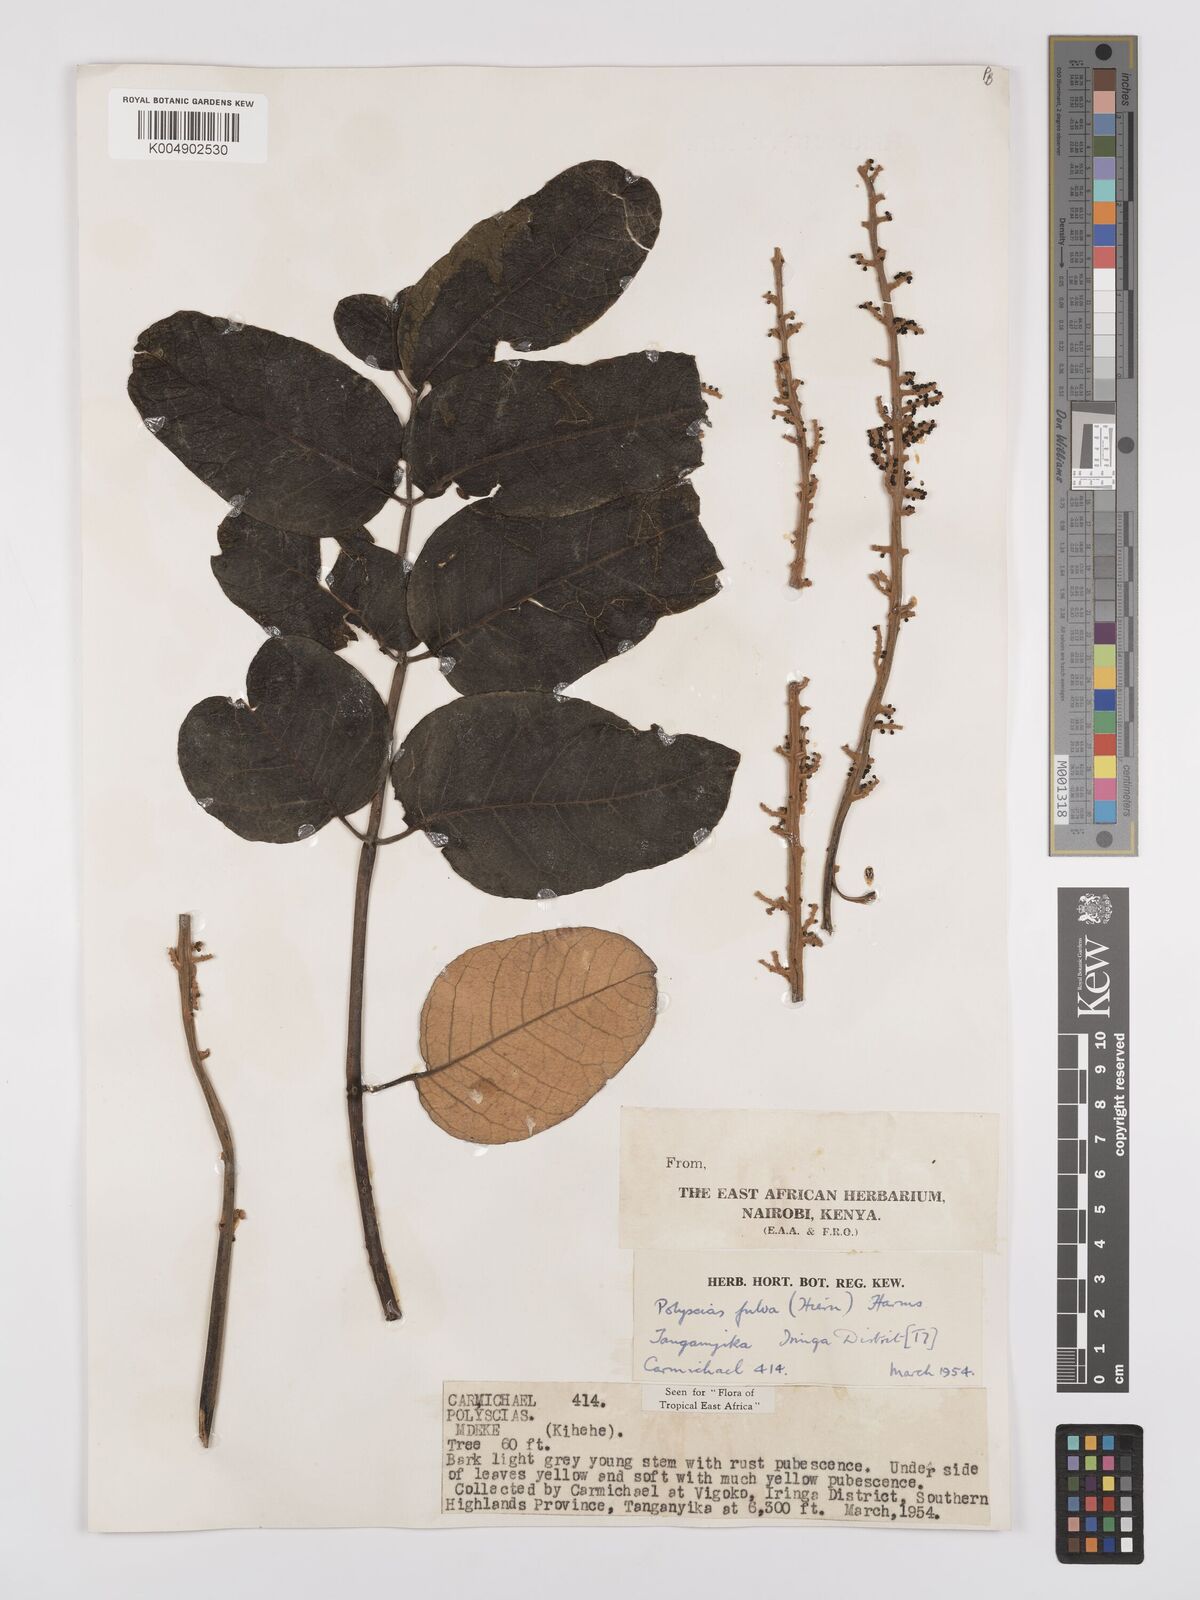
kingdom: Plantae
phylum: Tracheophyta
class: Magnoliopsida
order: Apiales
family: Araliaceae
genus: Polyscias
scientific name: Polyscias fulva
